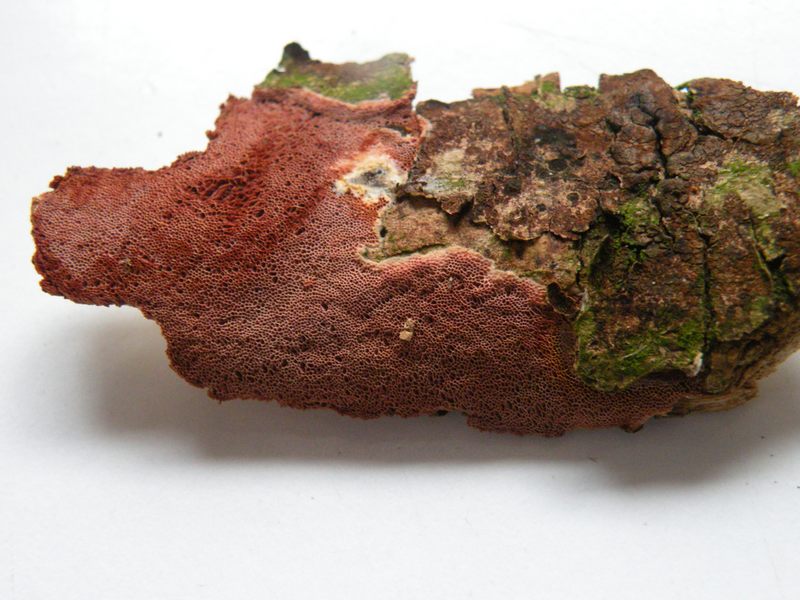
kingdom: Fungi
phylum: Basidiomycota
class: Agaricomycetes
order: Polyporales
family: Irpicaceae
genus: Ceriporia
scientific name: Ceriporia purpurea
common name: purpur-voksporesvamp
